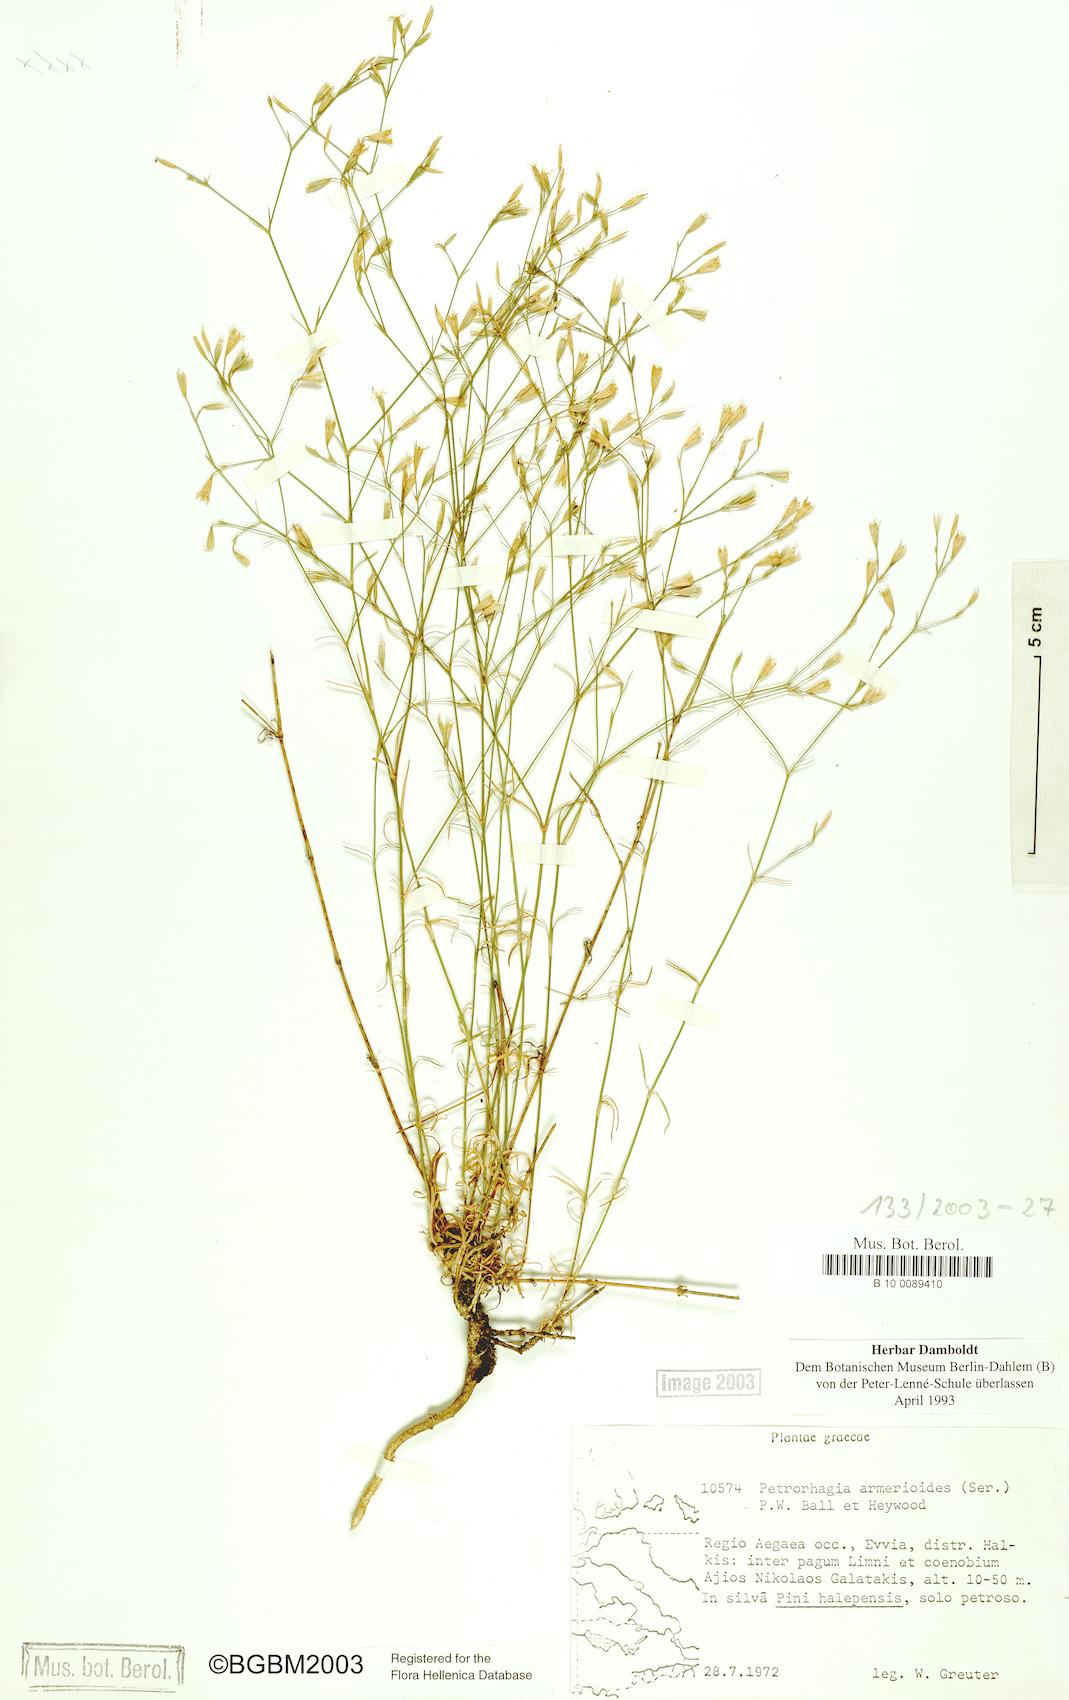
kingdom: Plantae
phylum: Tracheophyta
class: Magnoliopsida
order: Caryophyllales
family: Caryophyllaceae
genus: Dianthus
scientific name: Dianthus tunicoides
